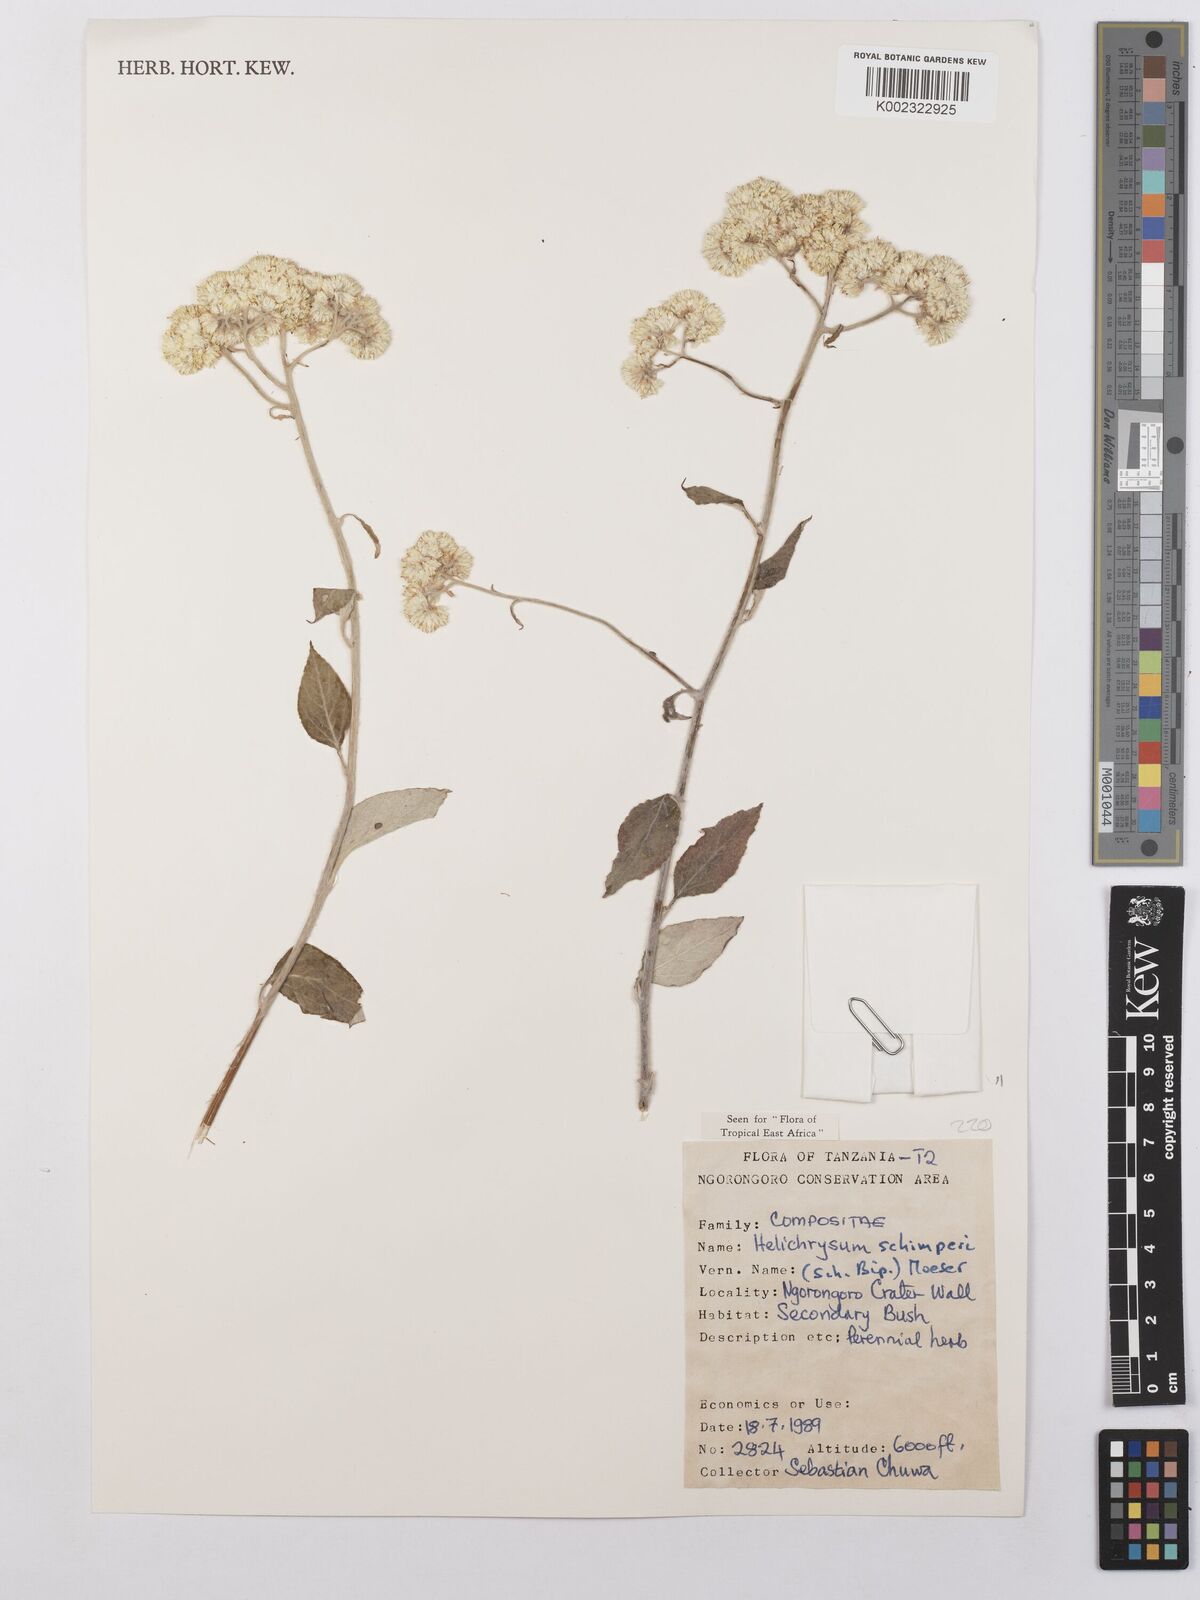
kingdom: Plantae
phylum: Tracheophyta
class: Magnoliopsida
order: Asterales
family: Asteraceae
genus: Helichrysum
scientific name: Helichrysum schimperi
